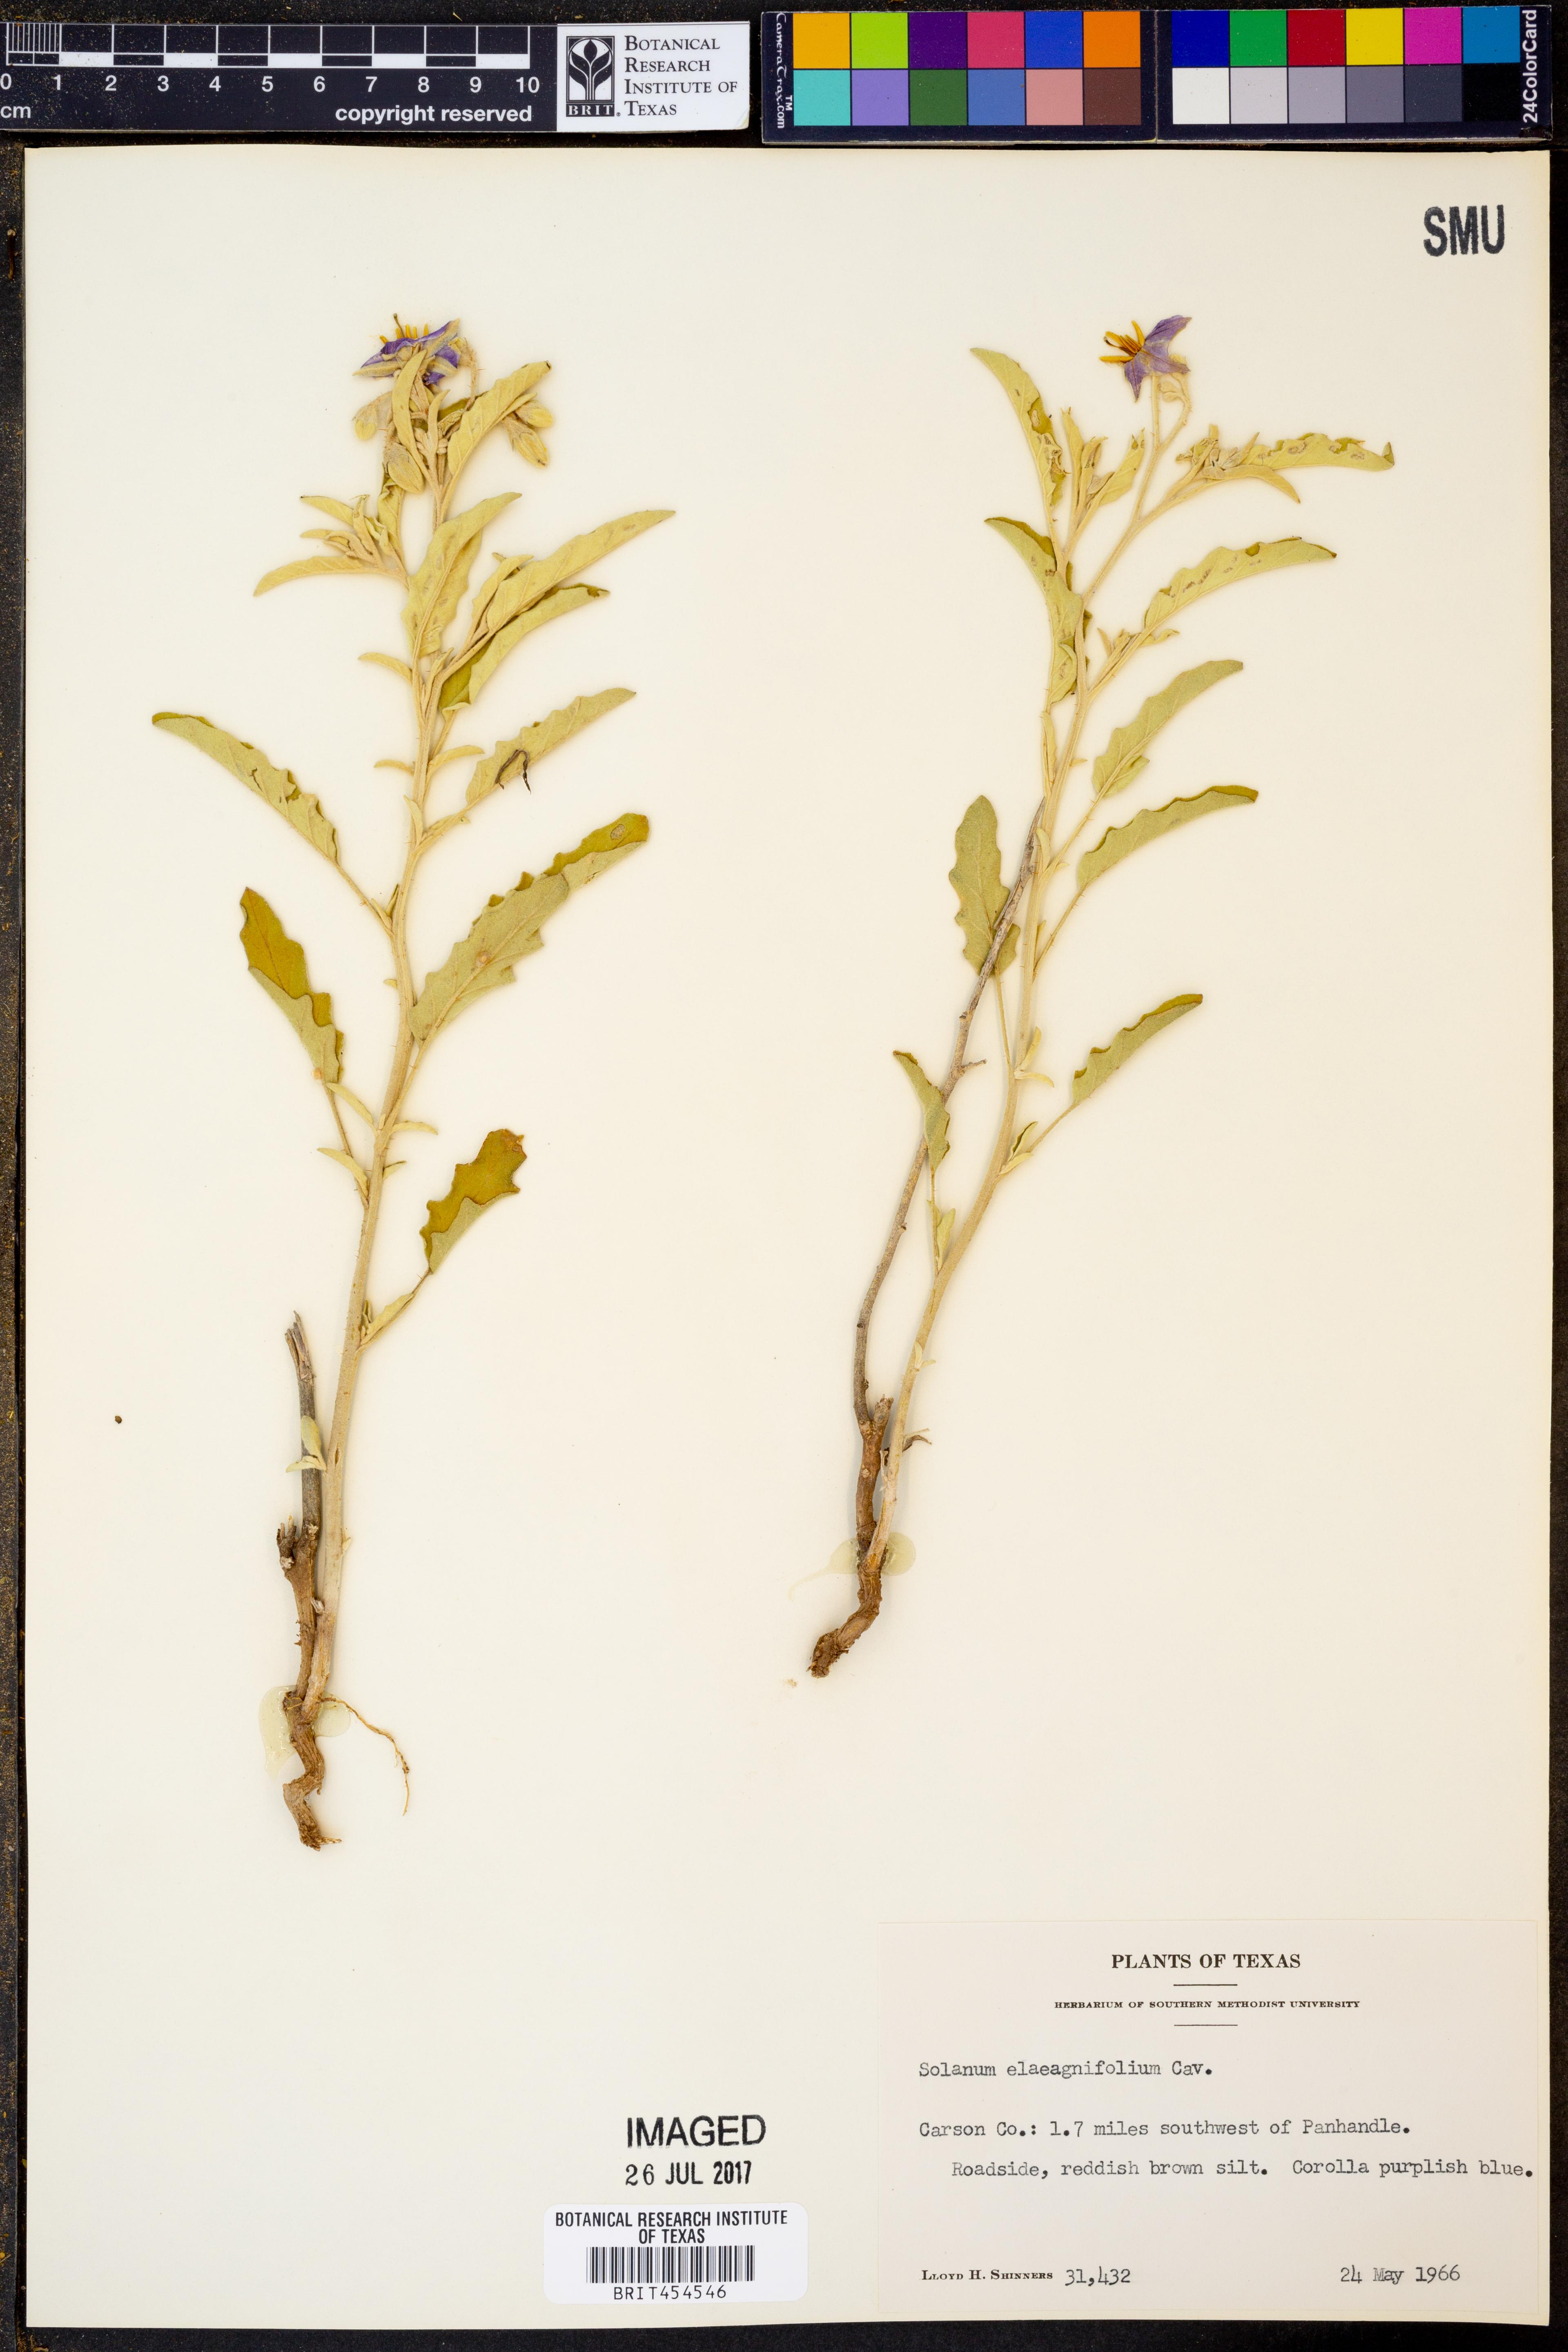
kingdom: Plantae
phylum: Tracheophyta
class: Magnoliopsida
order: Solanales
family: Solanaceae
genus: Solanum
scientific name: Solanum elaeagnifolium
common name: Silverleaf nightshade
